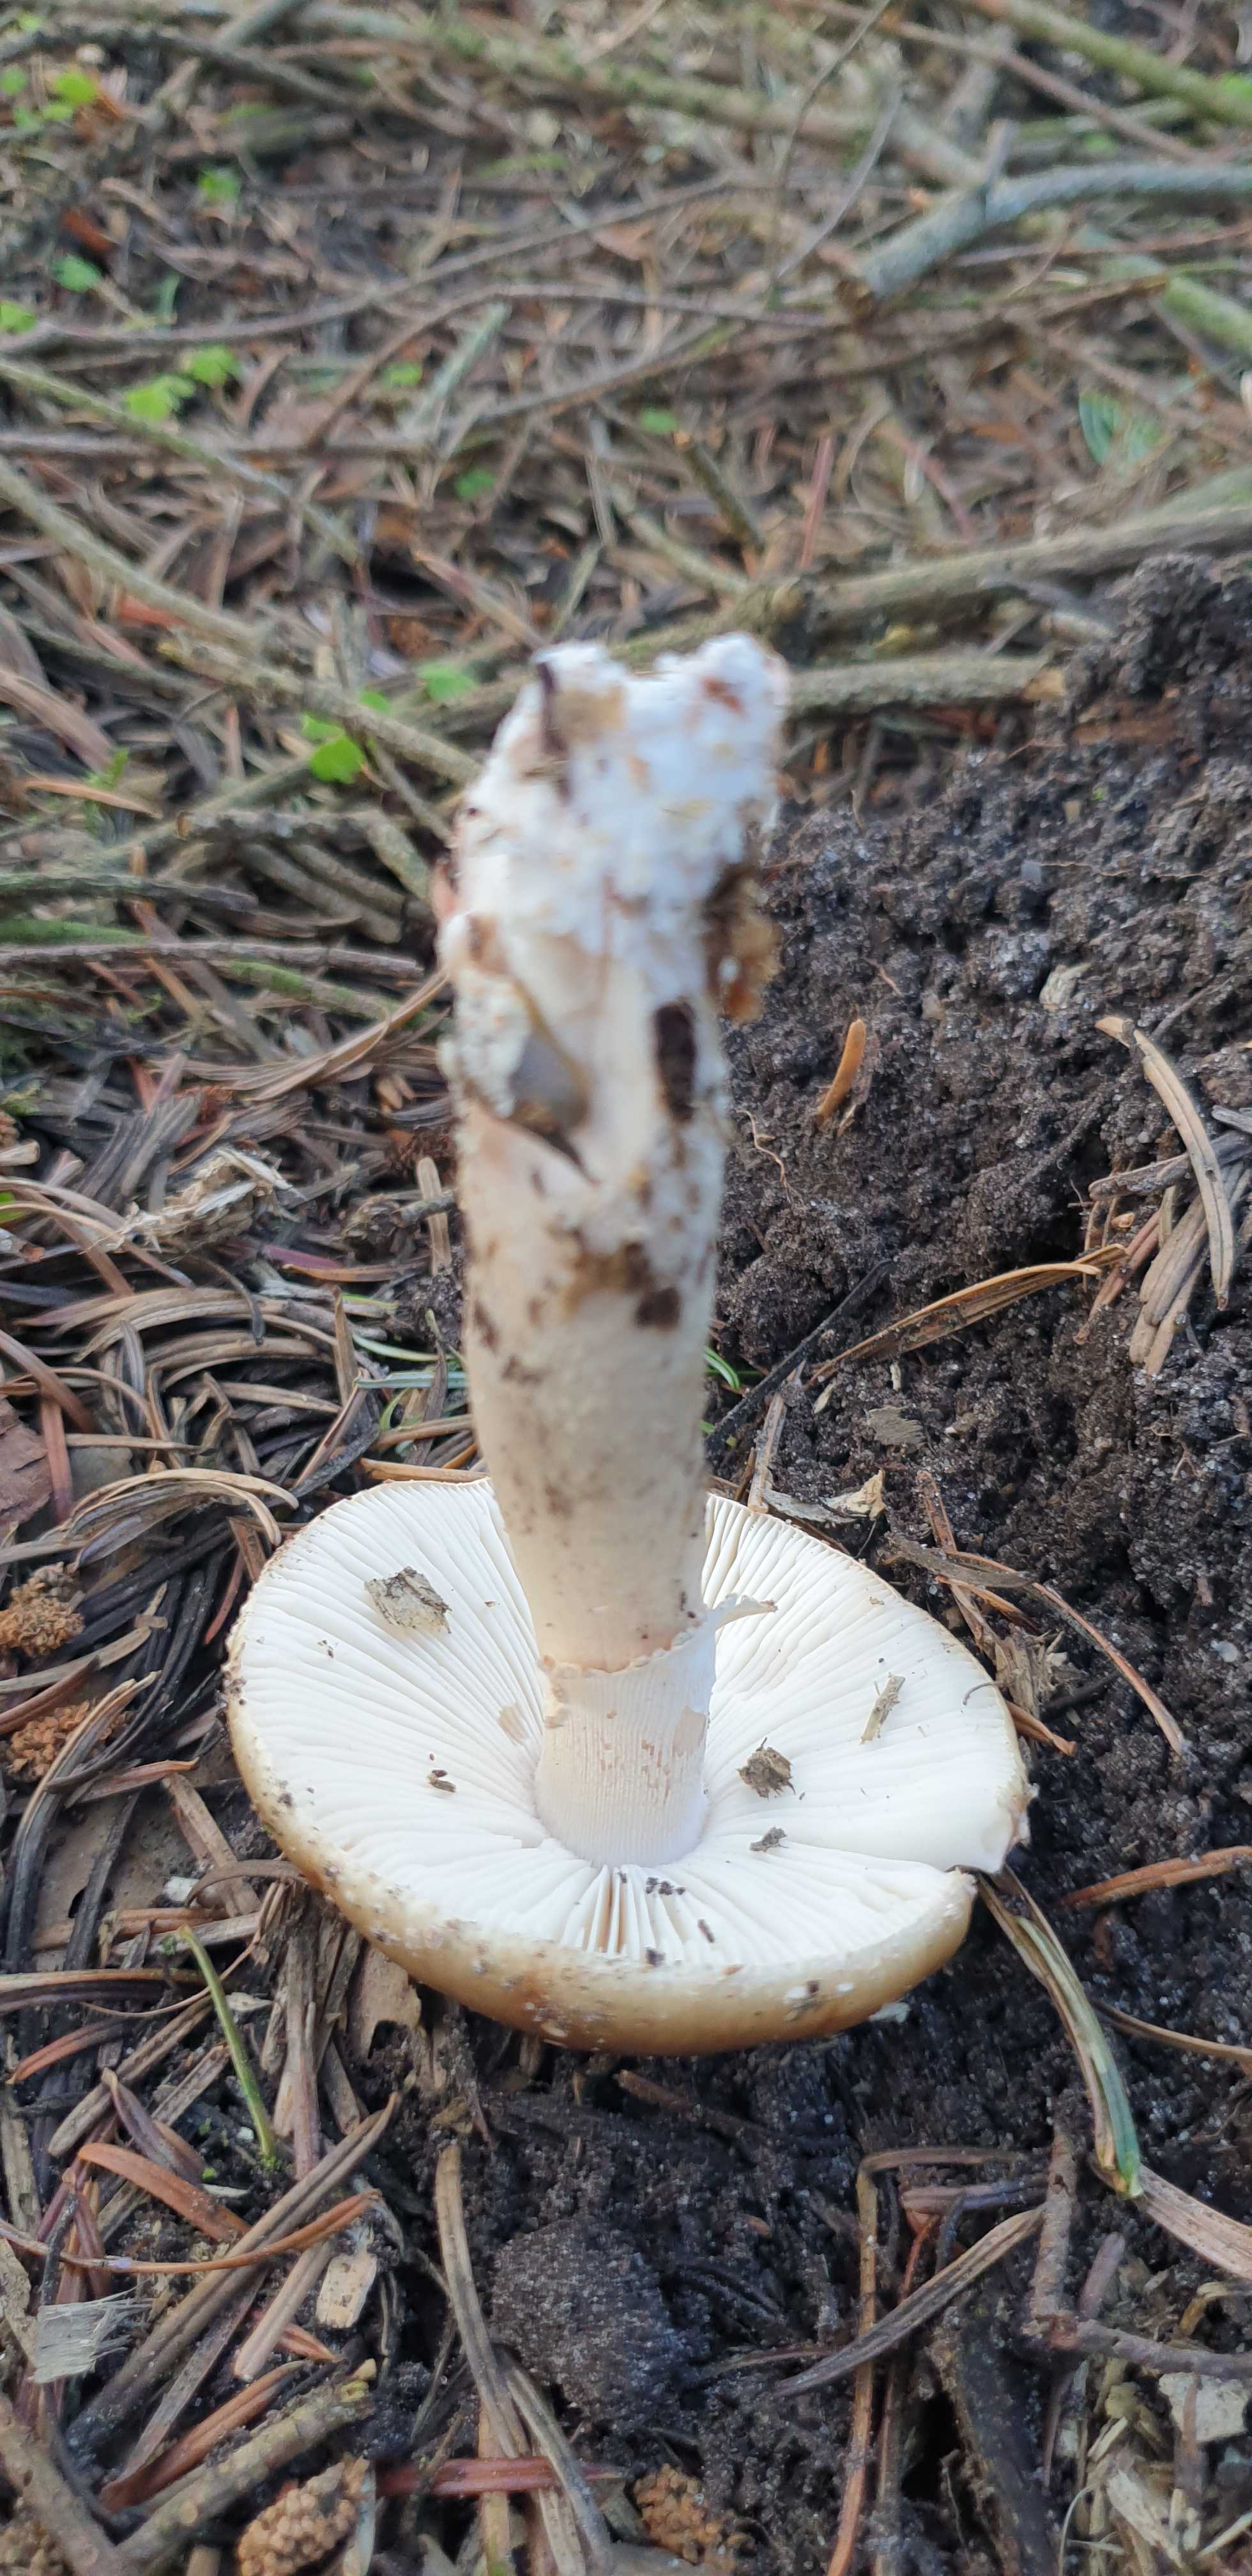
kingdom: Fungi
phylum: Basidiomycota
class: Agaricomycetes
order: Agaricales
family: Amanitaceae
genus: Amanita
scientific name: Amanita rubescens
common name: rødmende fluesvamp
